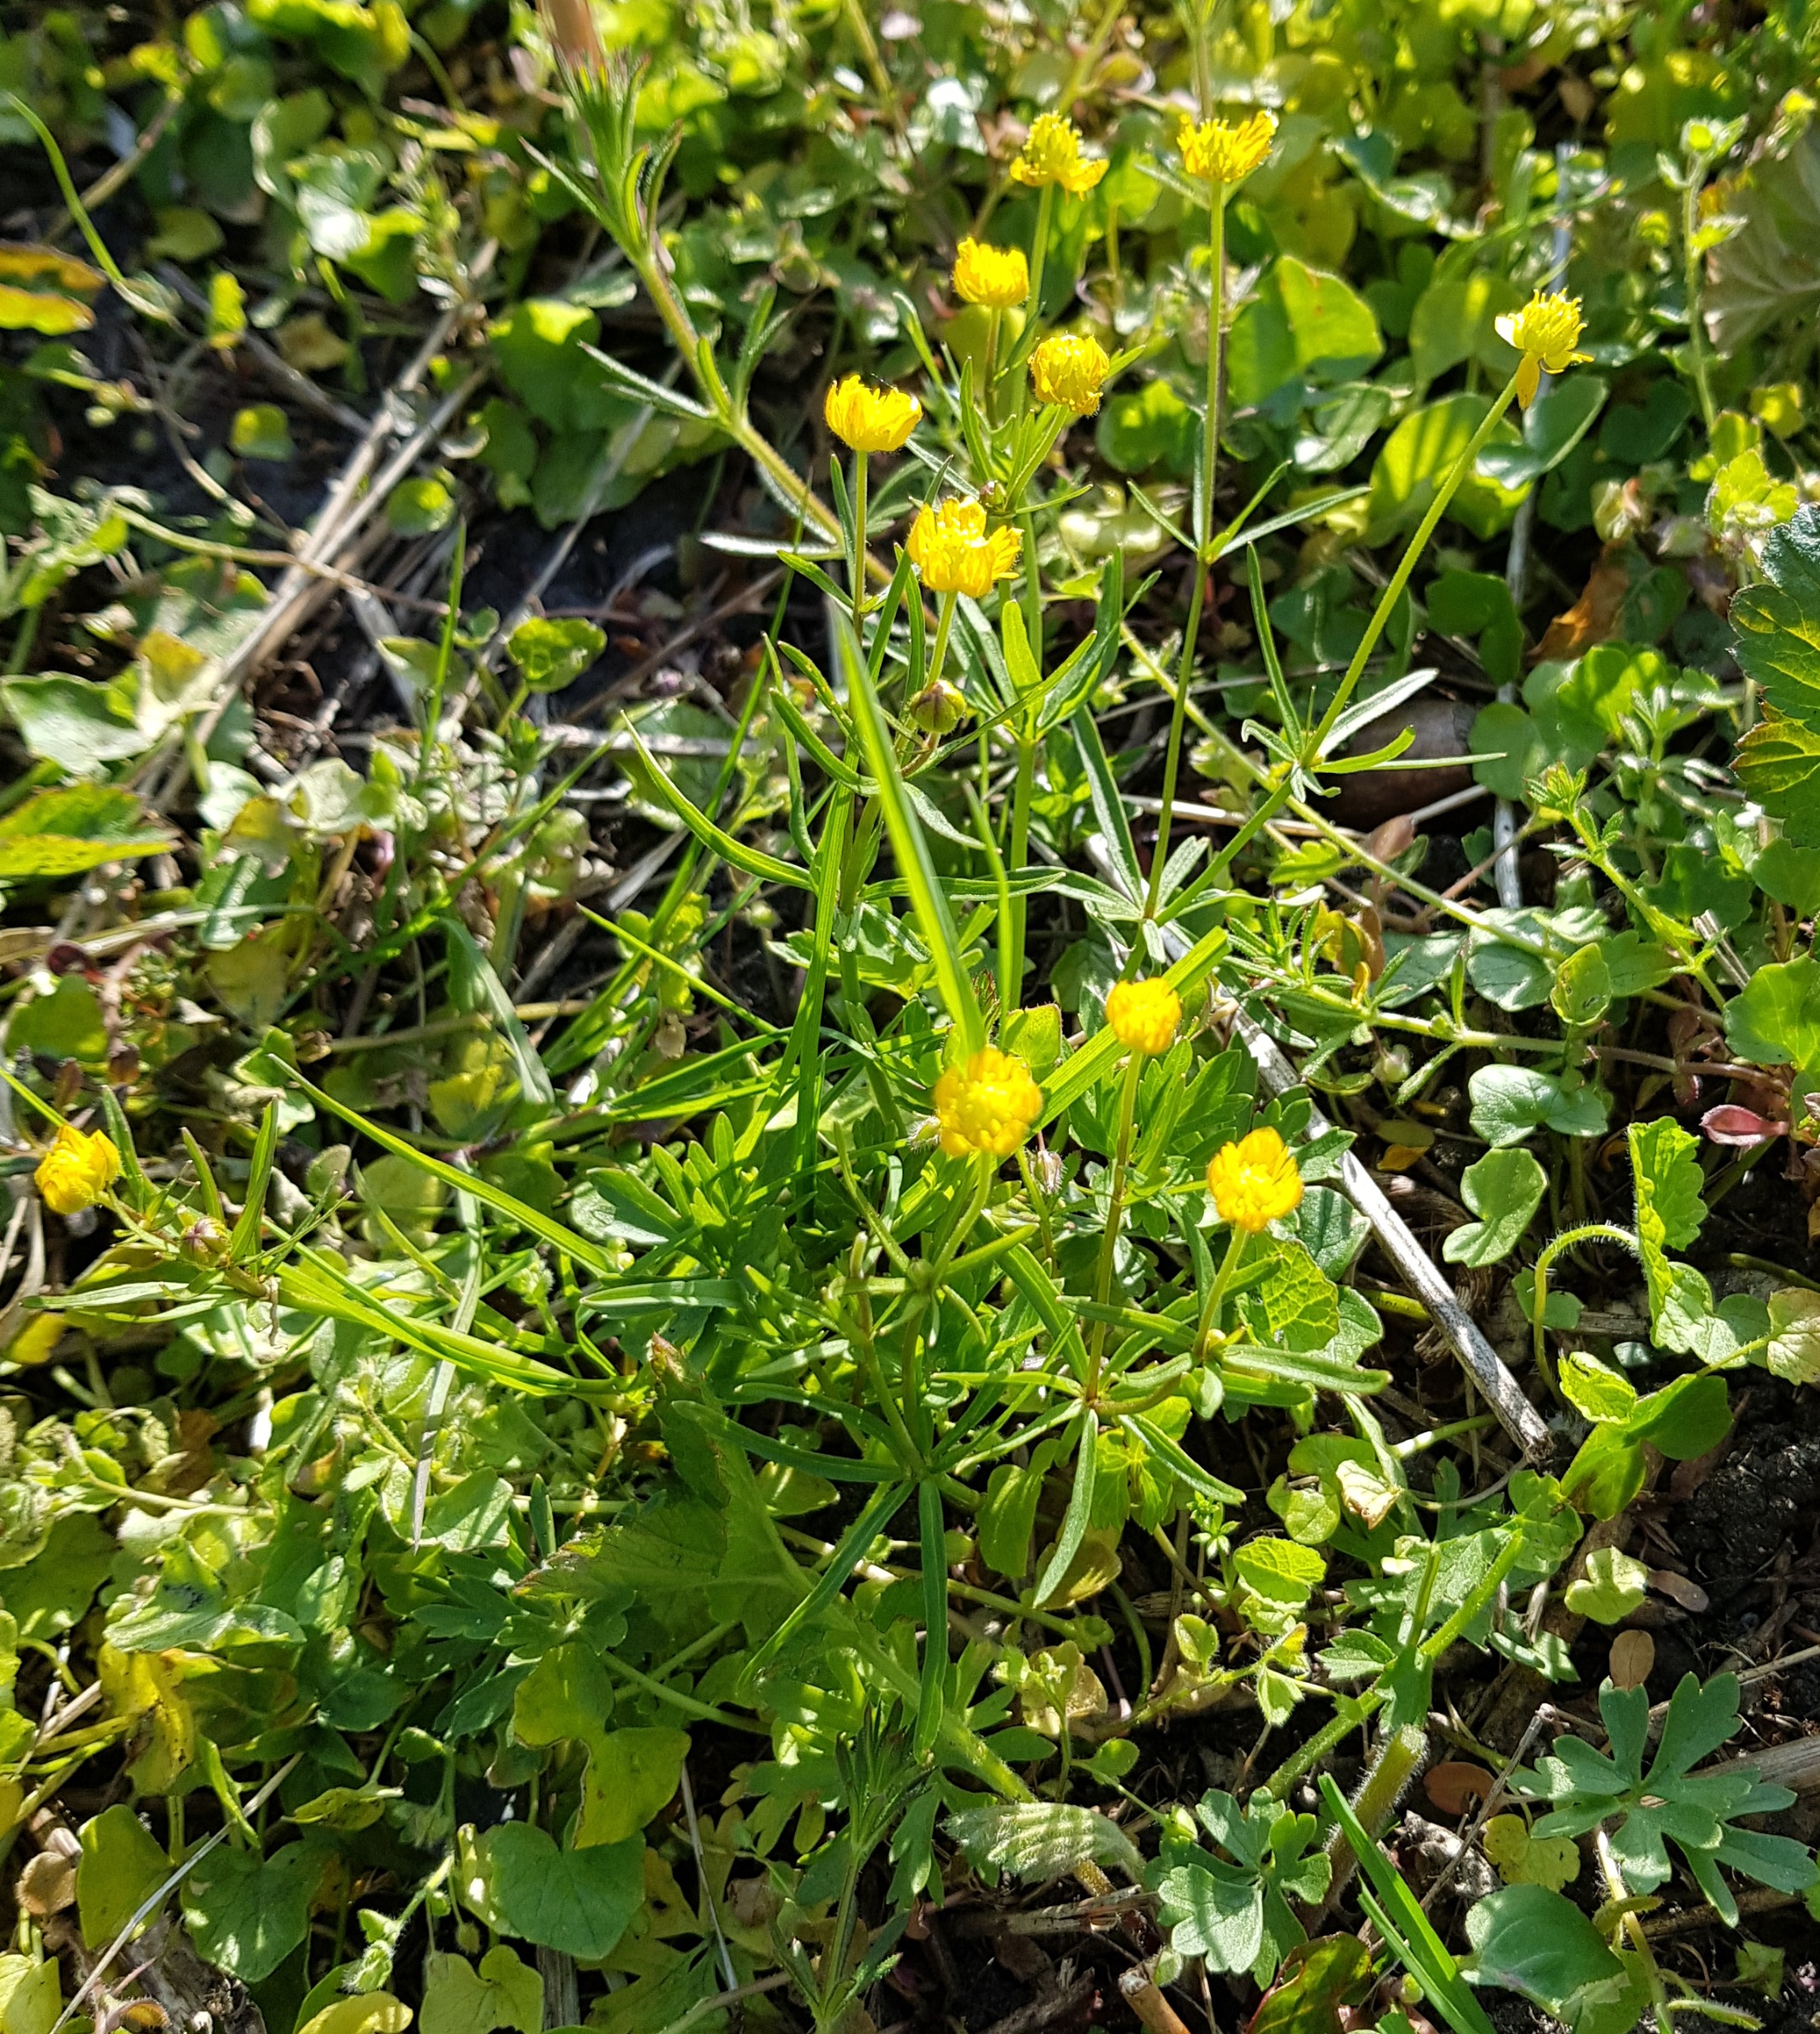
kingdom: Plantae
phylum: Tracheophyta
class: Magnoliopsida
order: Ranunculales
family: Ranunculaceae
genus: Ranunculus
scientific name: Ranunculus auricomus
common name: Nyrebladet ranunkel
